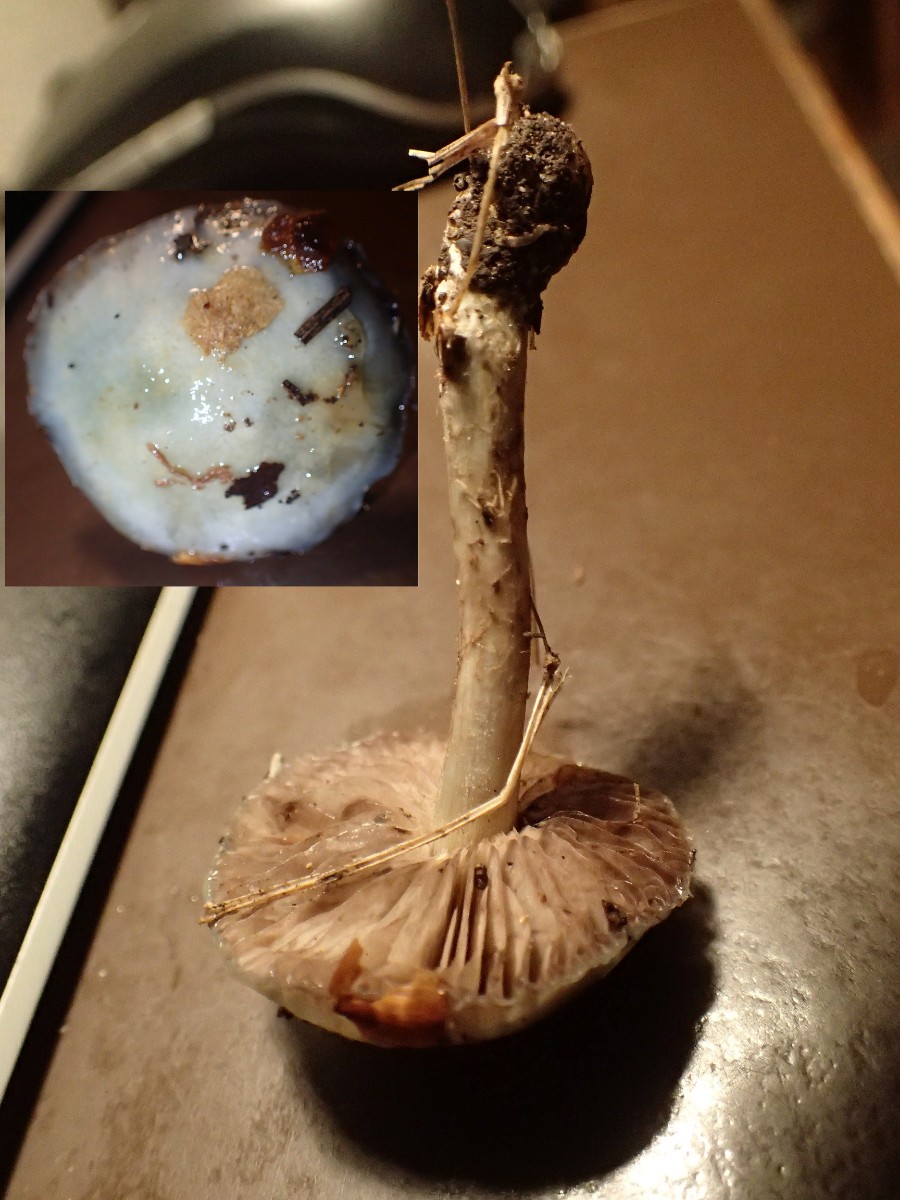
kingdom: Fungi
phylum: Basidiomycota
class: Agaricomycetes
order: Agaricales
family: Strophariaceae
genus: Stropharia
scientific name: Stropharia aeruginosa
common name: spanskgrøn bredblad
